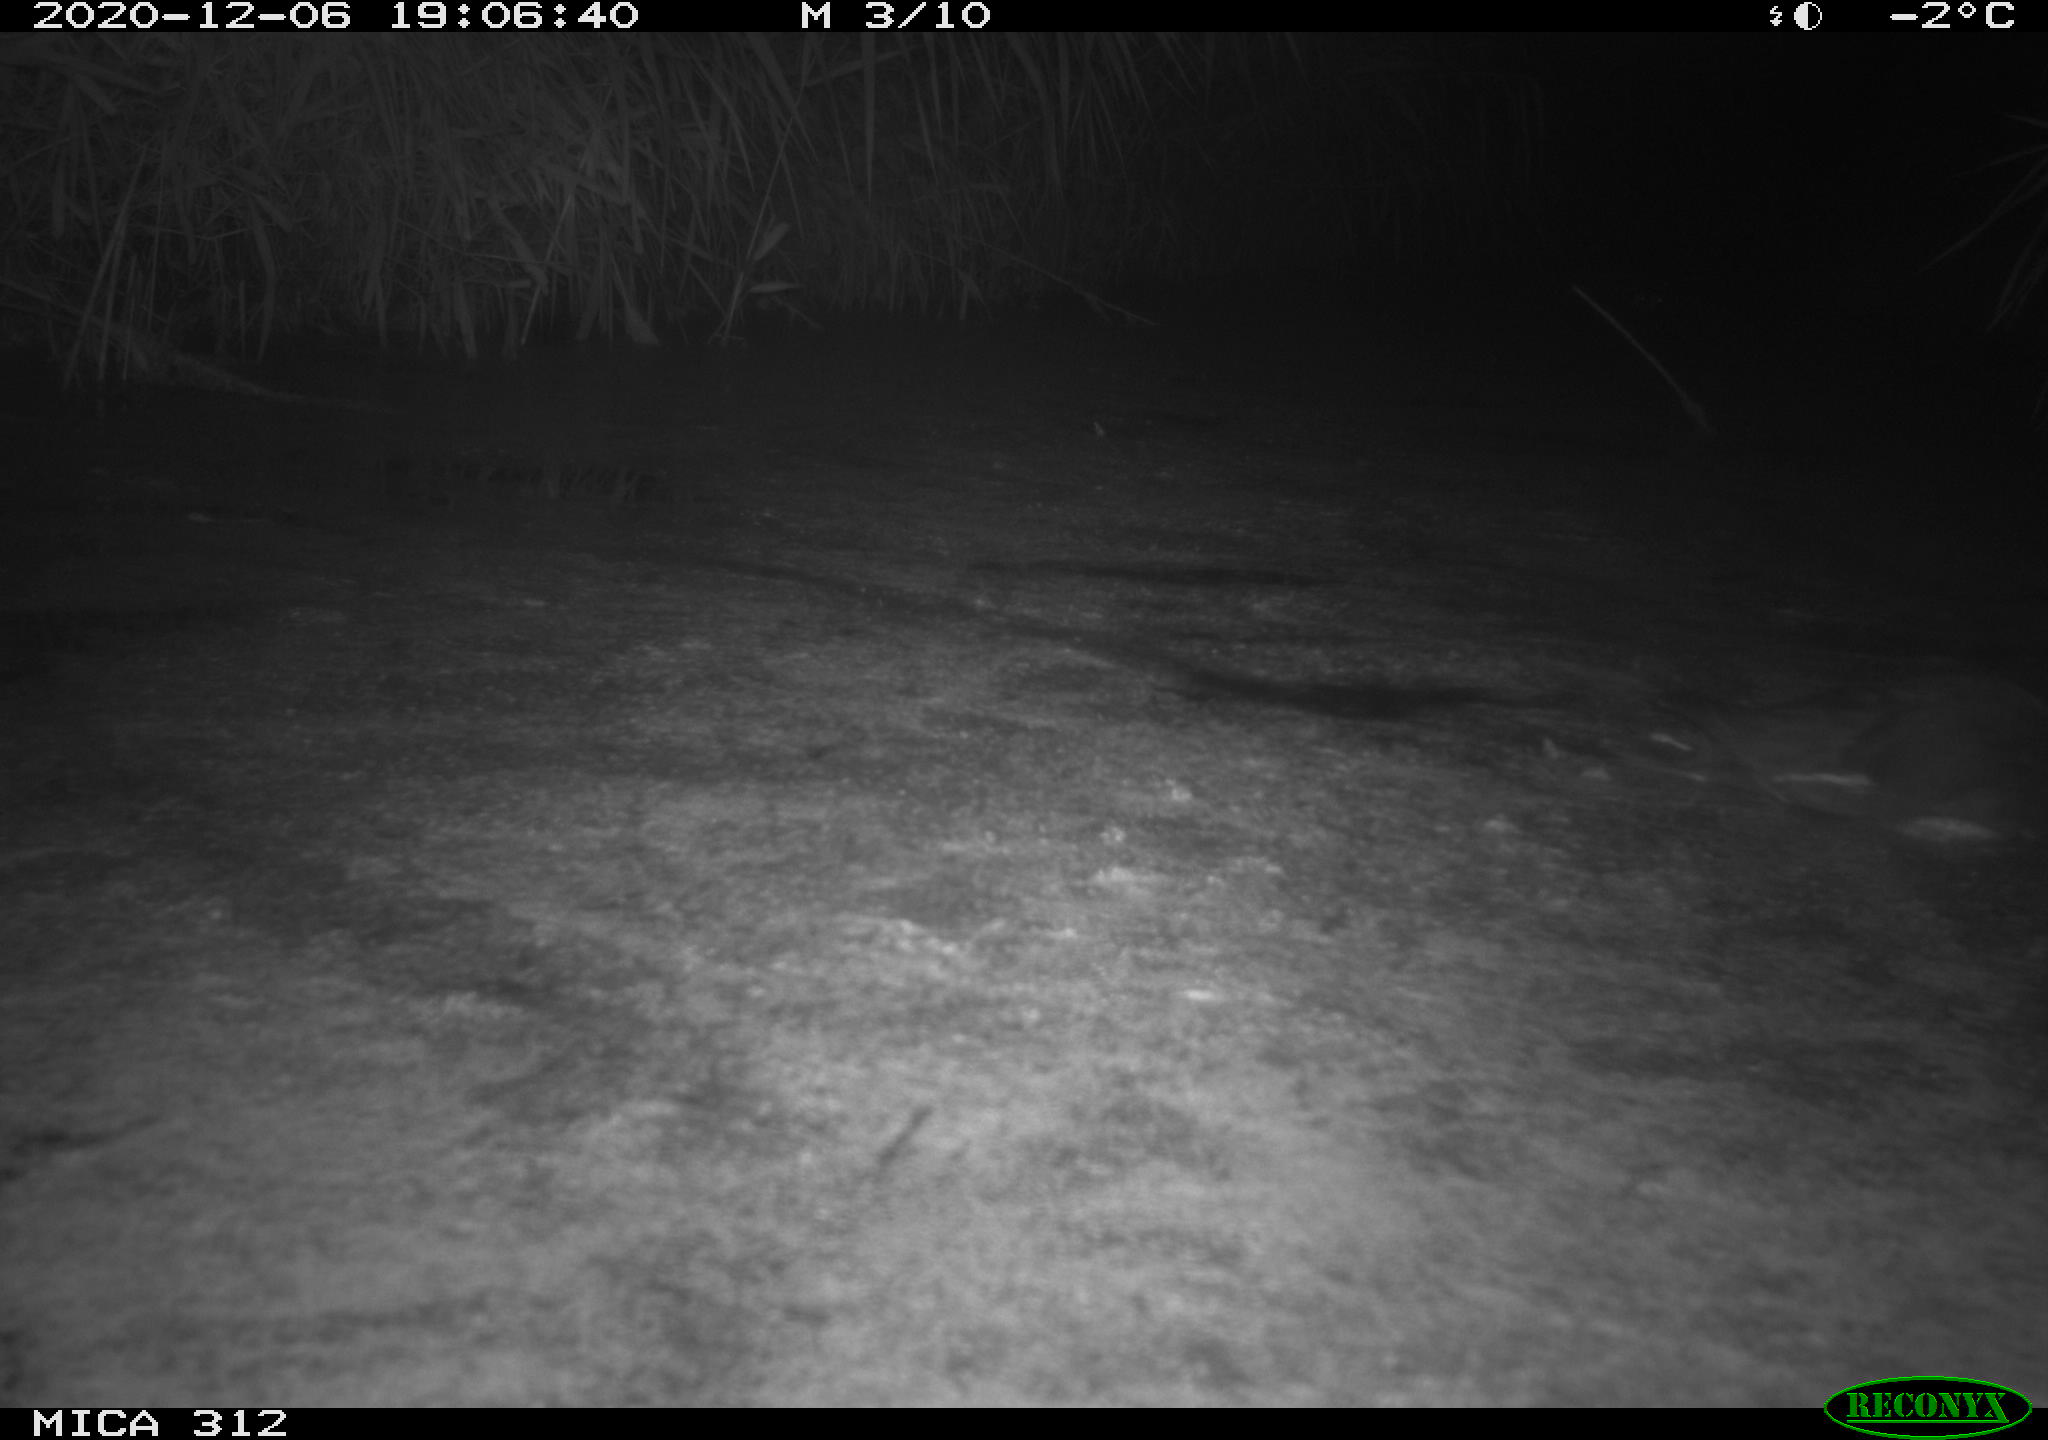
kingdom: Animalia
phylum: Chordata
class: Mammalia
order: Rodentia
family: Muridae
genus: Rattus
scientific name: Rattus norvegicus
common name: Brown rat
